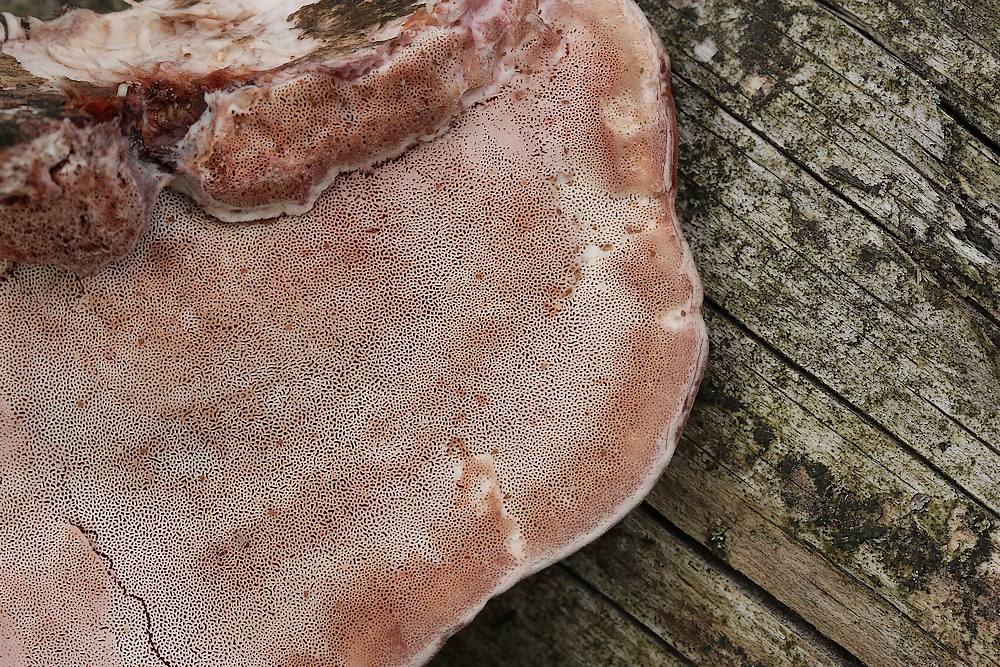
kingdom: Fungi
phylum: Basidiomycota
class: Agaricomycetes
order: Polyporales
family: Irpicaceae
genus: Leptoporus
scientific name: Leptoporus mollis
